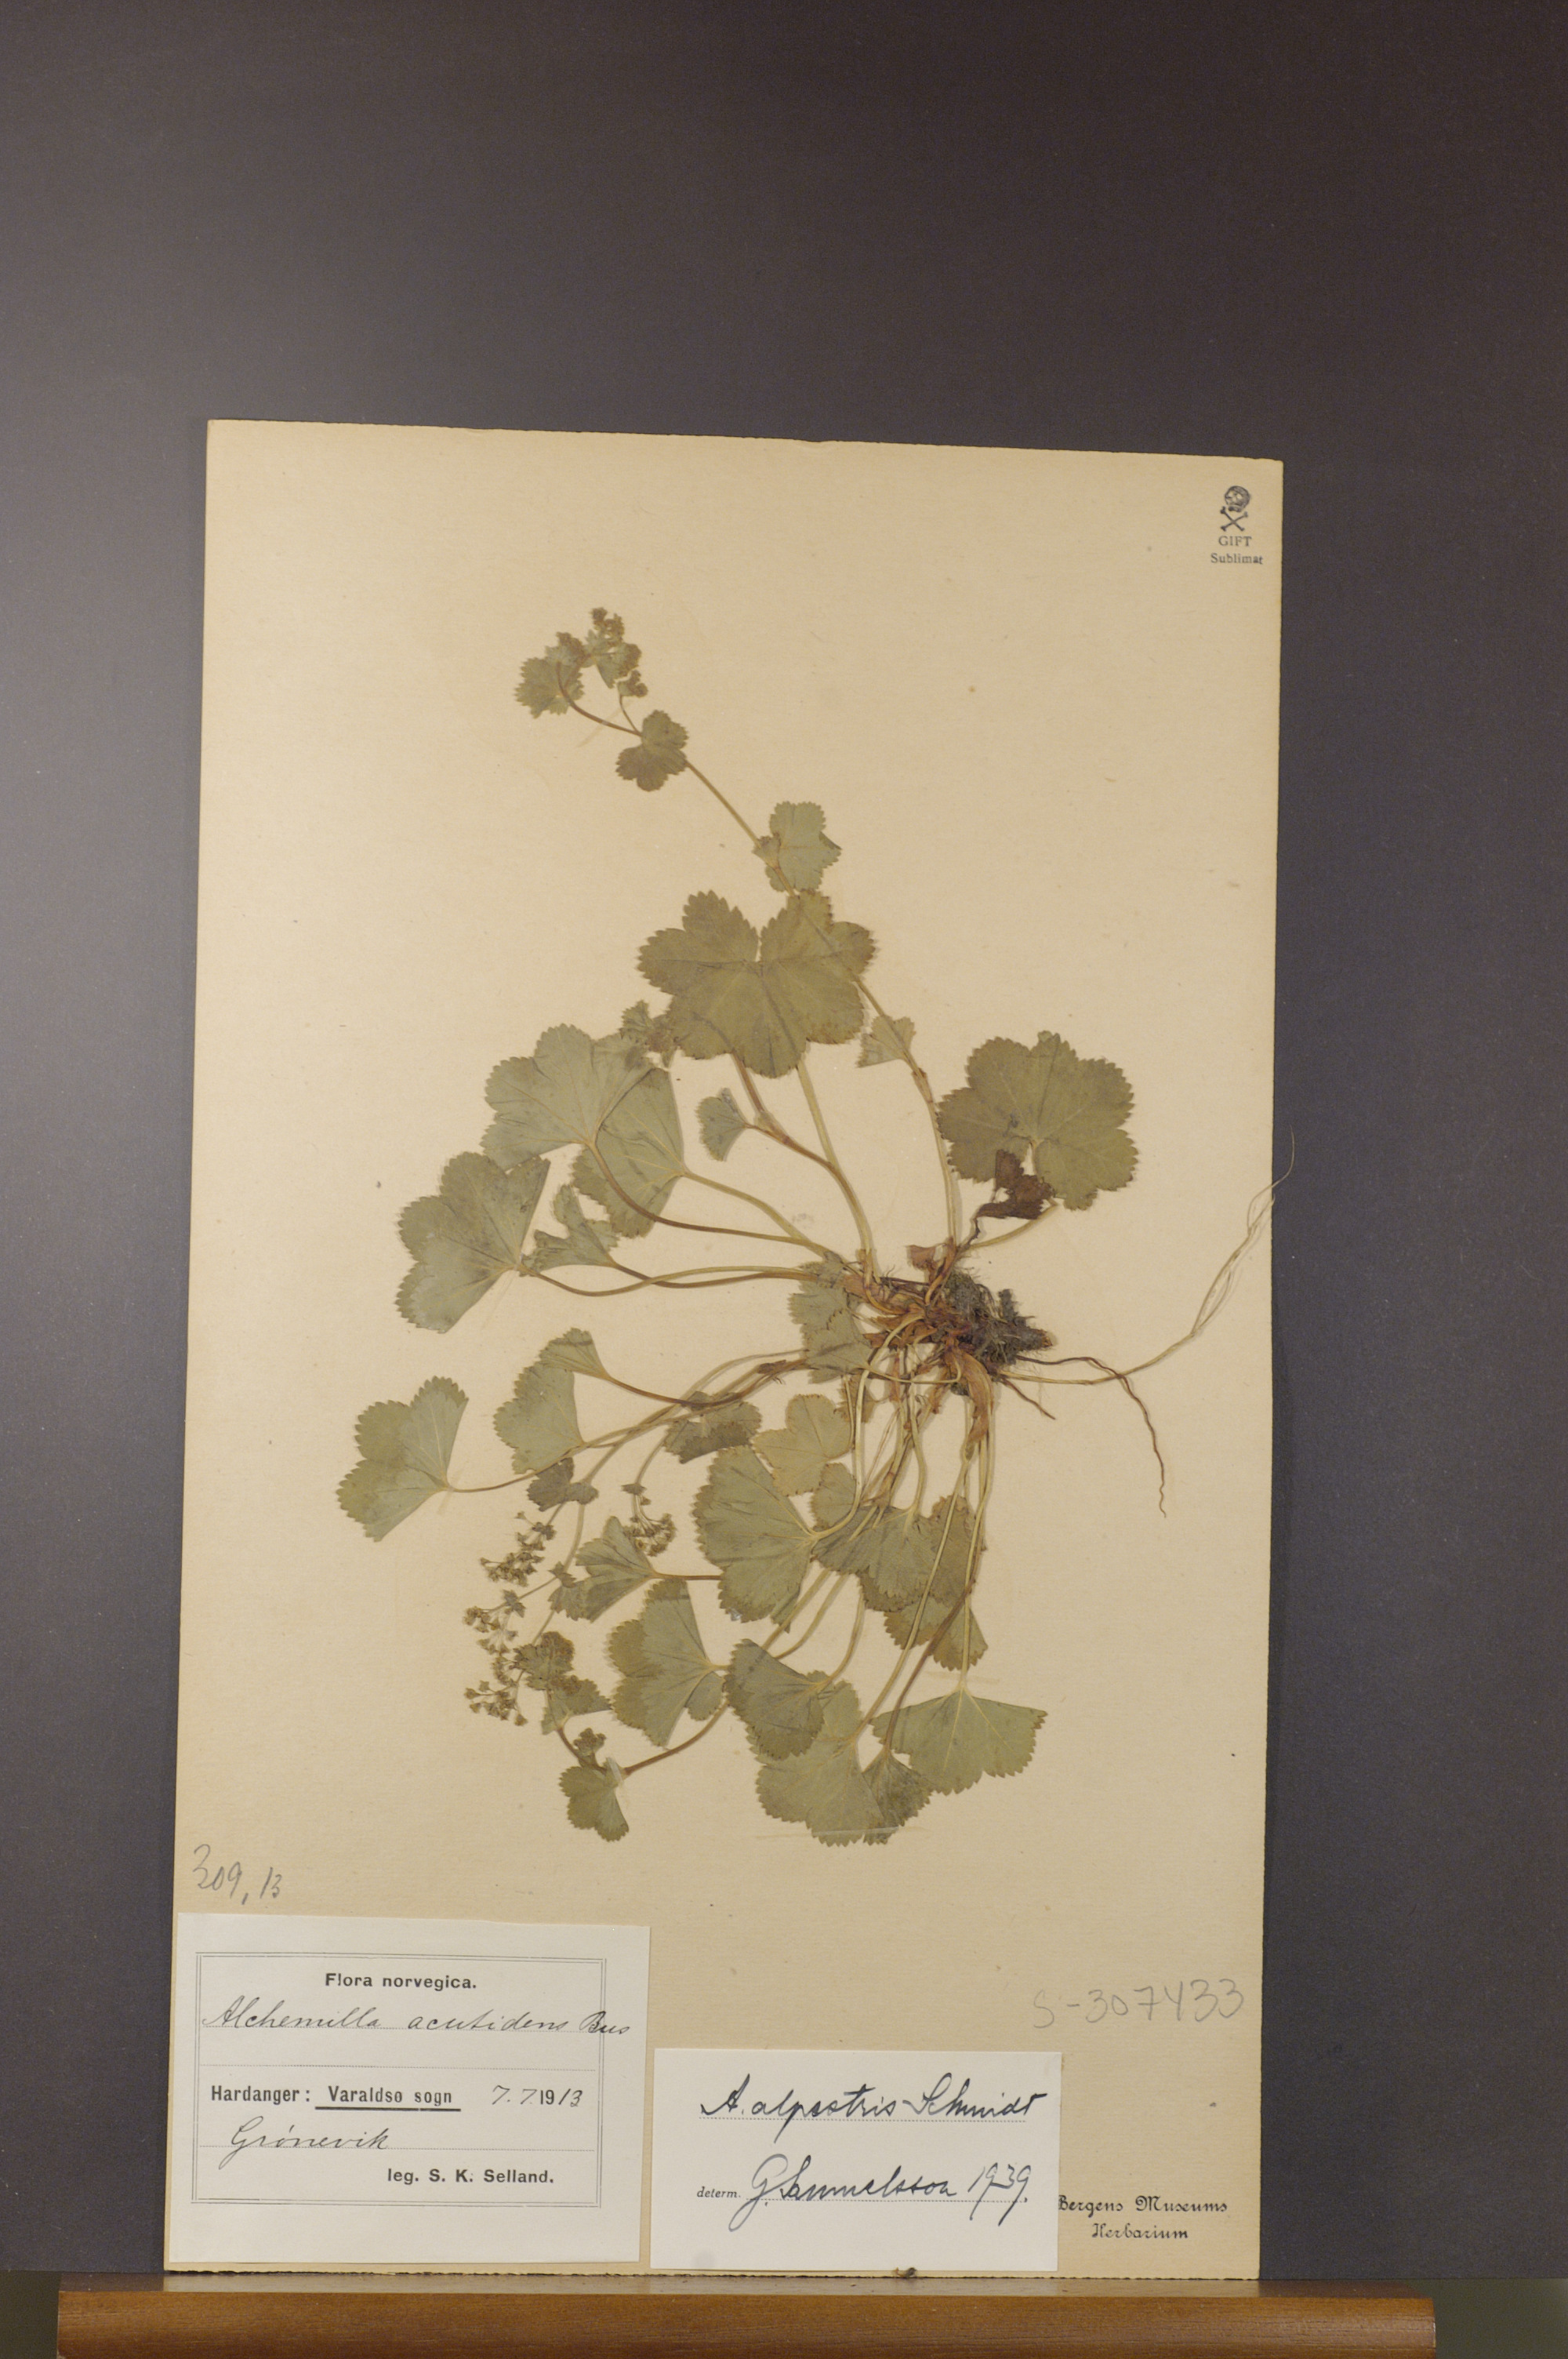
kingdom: Plantae
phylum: Tracheophyta
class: Magnoliopsida
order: Rosales
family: Rosaceae
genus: Alchemilla
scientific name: Alchemilla glabra
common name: Smooth lady's-mantle
